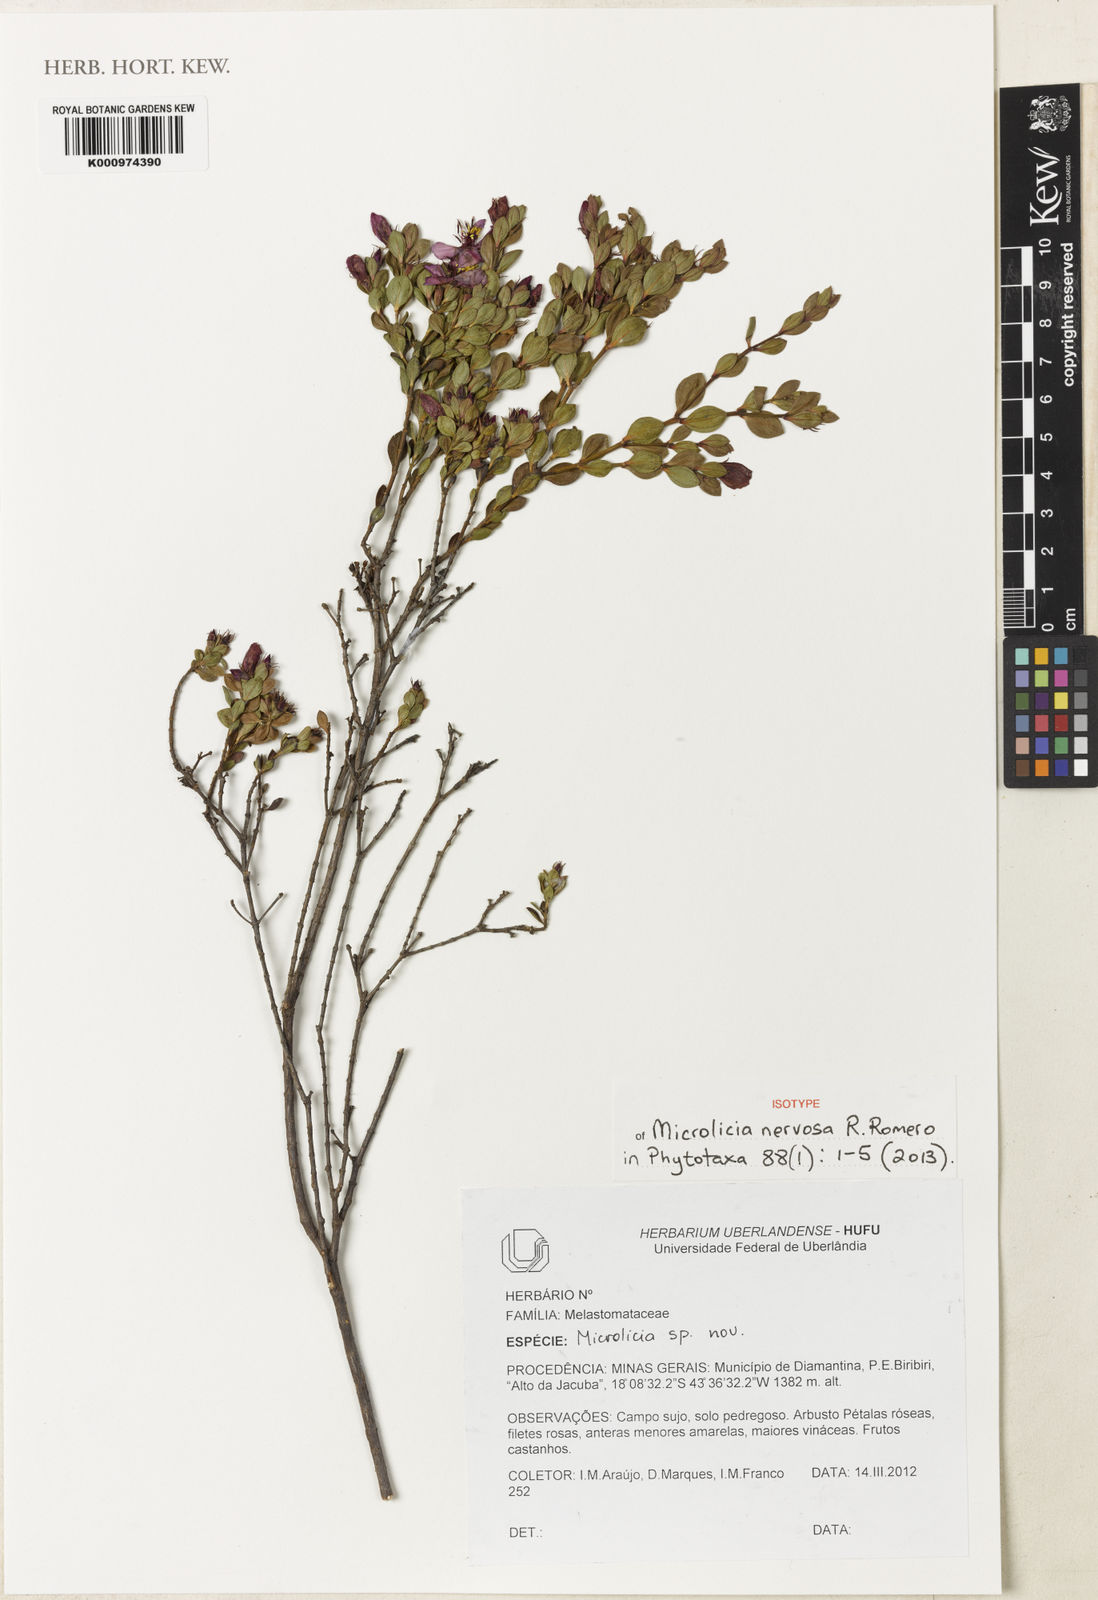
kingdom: Plantae
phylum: Tracheophyta
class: Magnoliopsida
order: Myrtales
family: Melastomataceae
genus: Microlicia
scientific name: Microlicia nervosa
